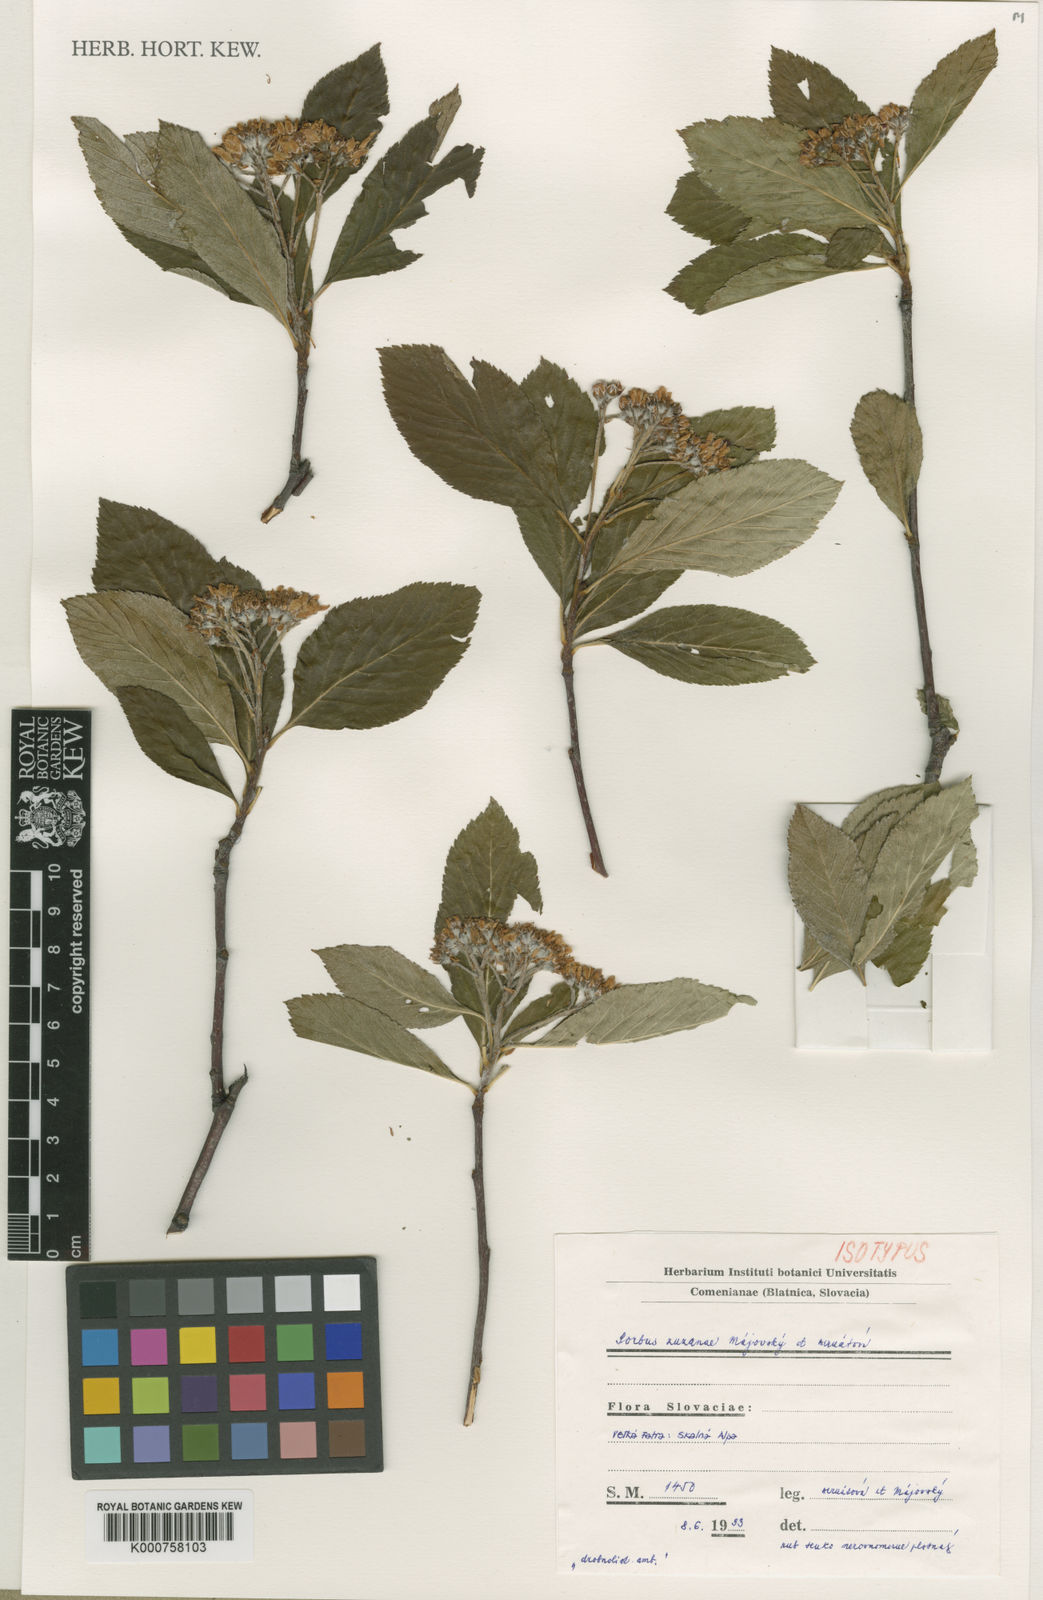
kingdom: Plantae
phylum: Tracheophyta
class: Magnoliopsida
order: Rosales
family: Rosaceae
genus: Sorbus
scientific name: Sorbus
